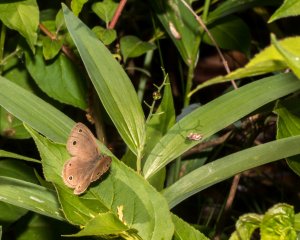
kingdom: Animalia
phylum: Arthropoda
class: Insecta
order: Lepidoptera
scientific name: Lepidoptera
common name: Butterflies
